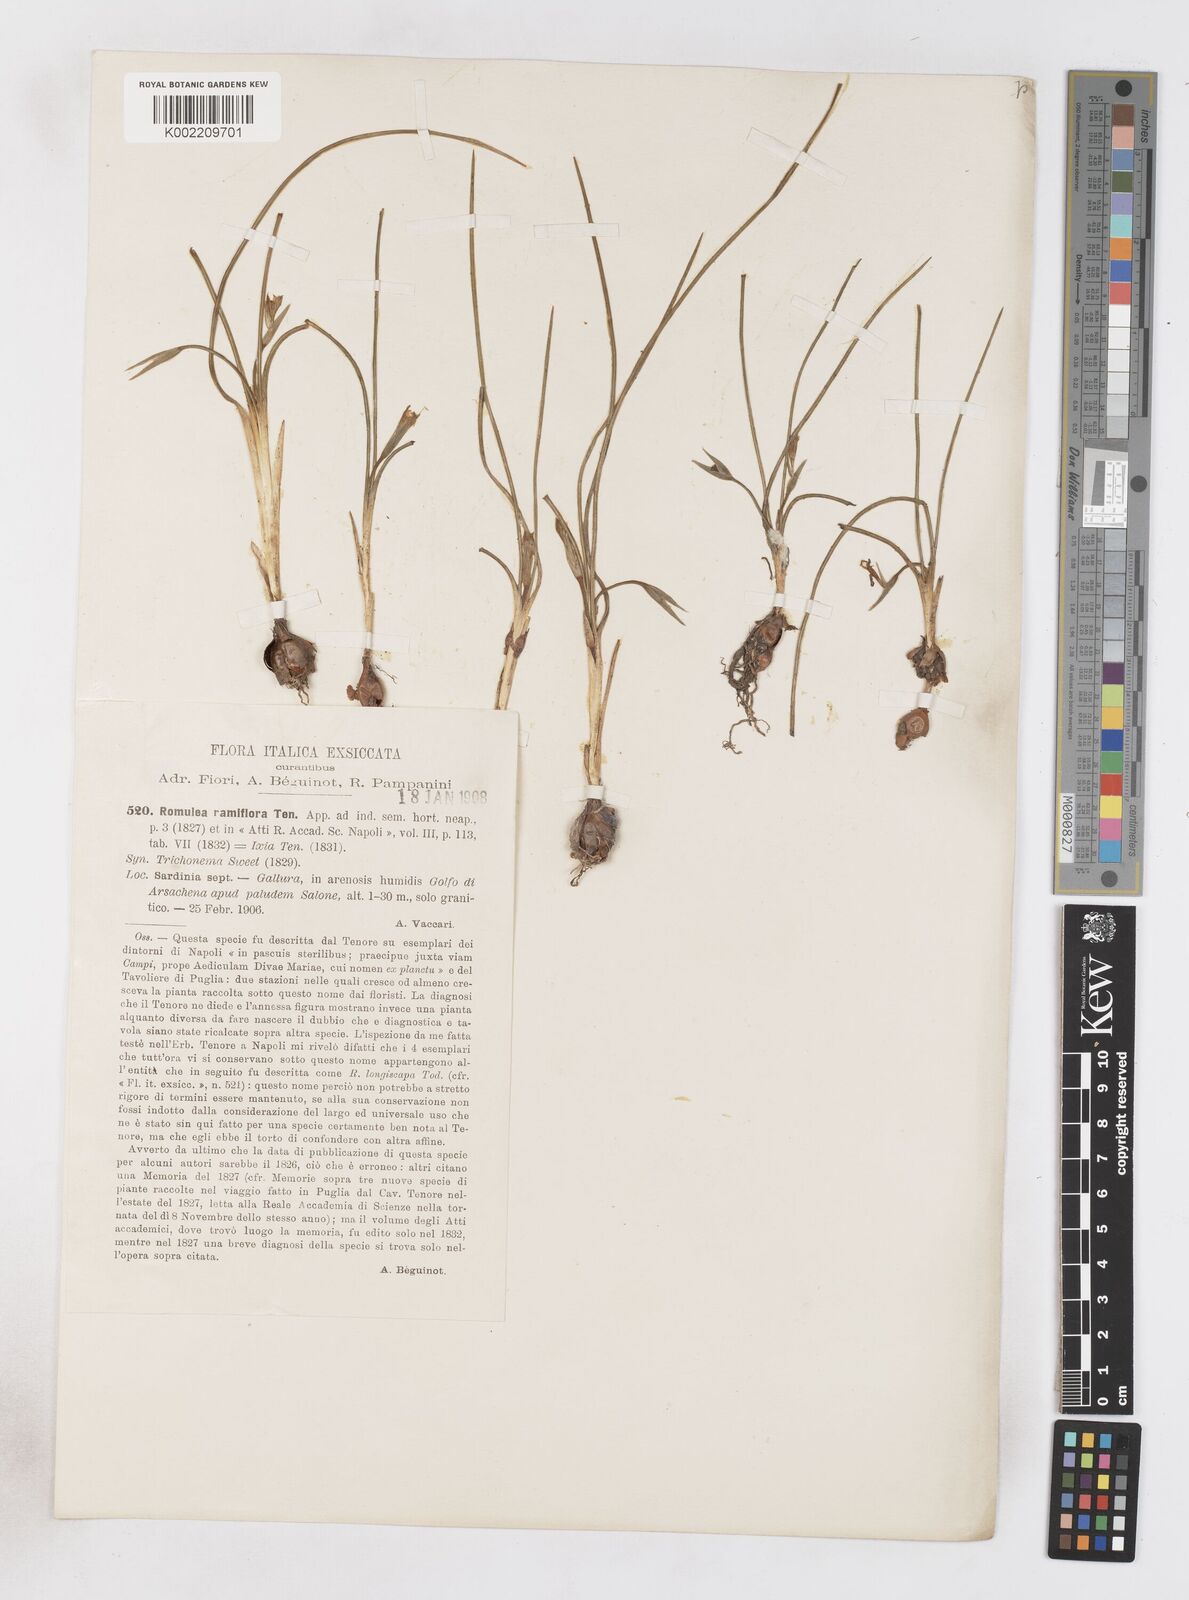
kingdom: Plantae
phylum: Tracheophyta
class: Liliopsida
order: Asparagales
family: Iridaceae
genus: Romulea
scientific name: Romulea ramiflora
